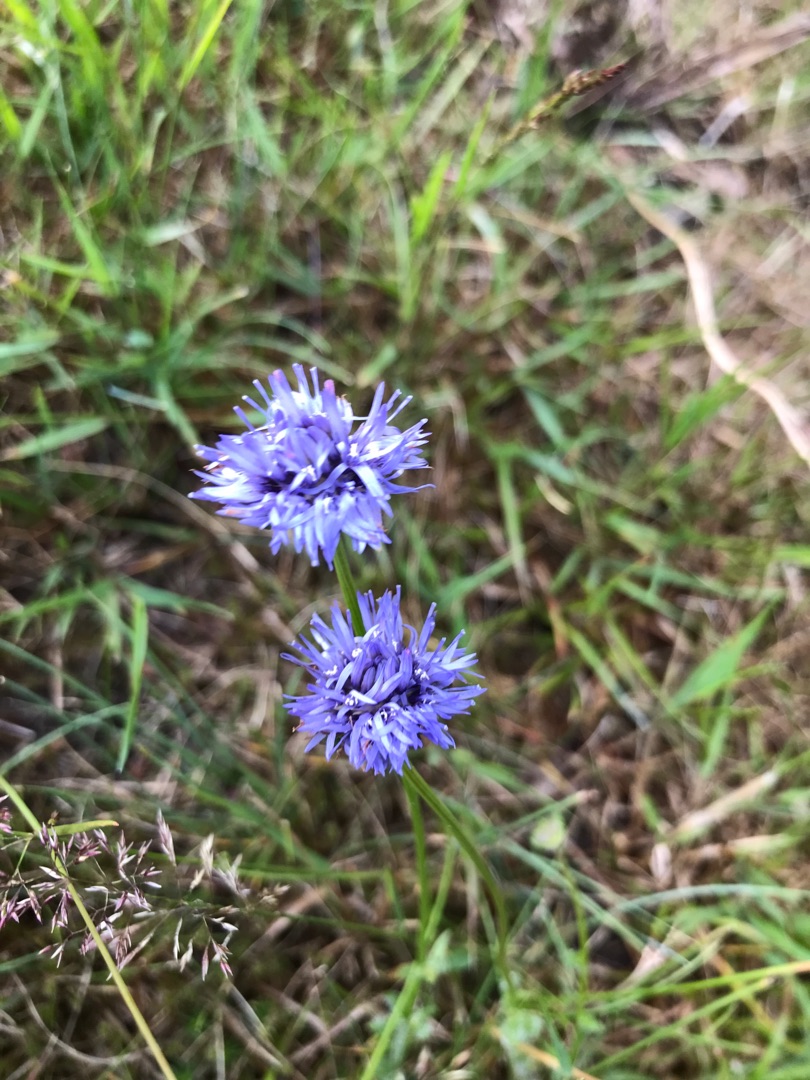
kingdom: Plantae
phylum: Tracheophyta
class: Magnoliopsida
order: Asterales
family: Campanulaceae
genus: Jasione
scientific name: Jasione montana
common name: Blåmunke
